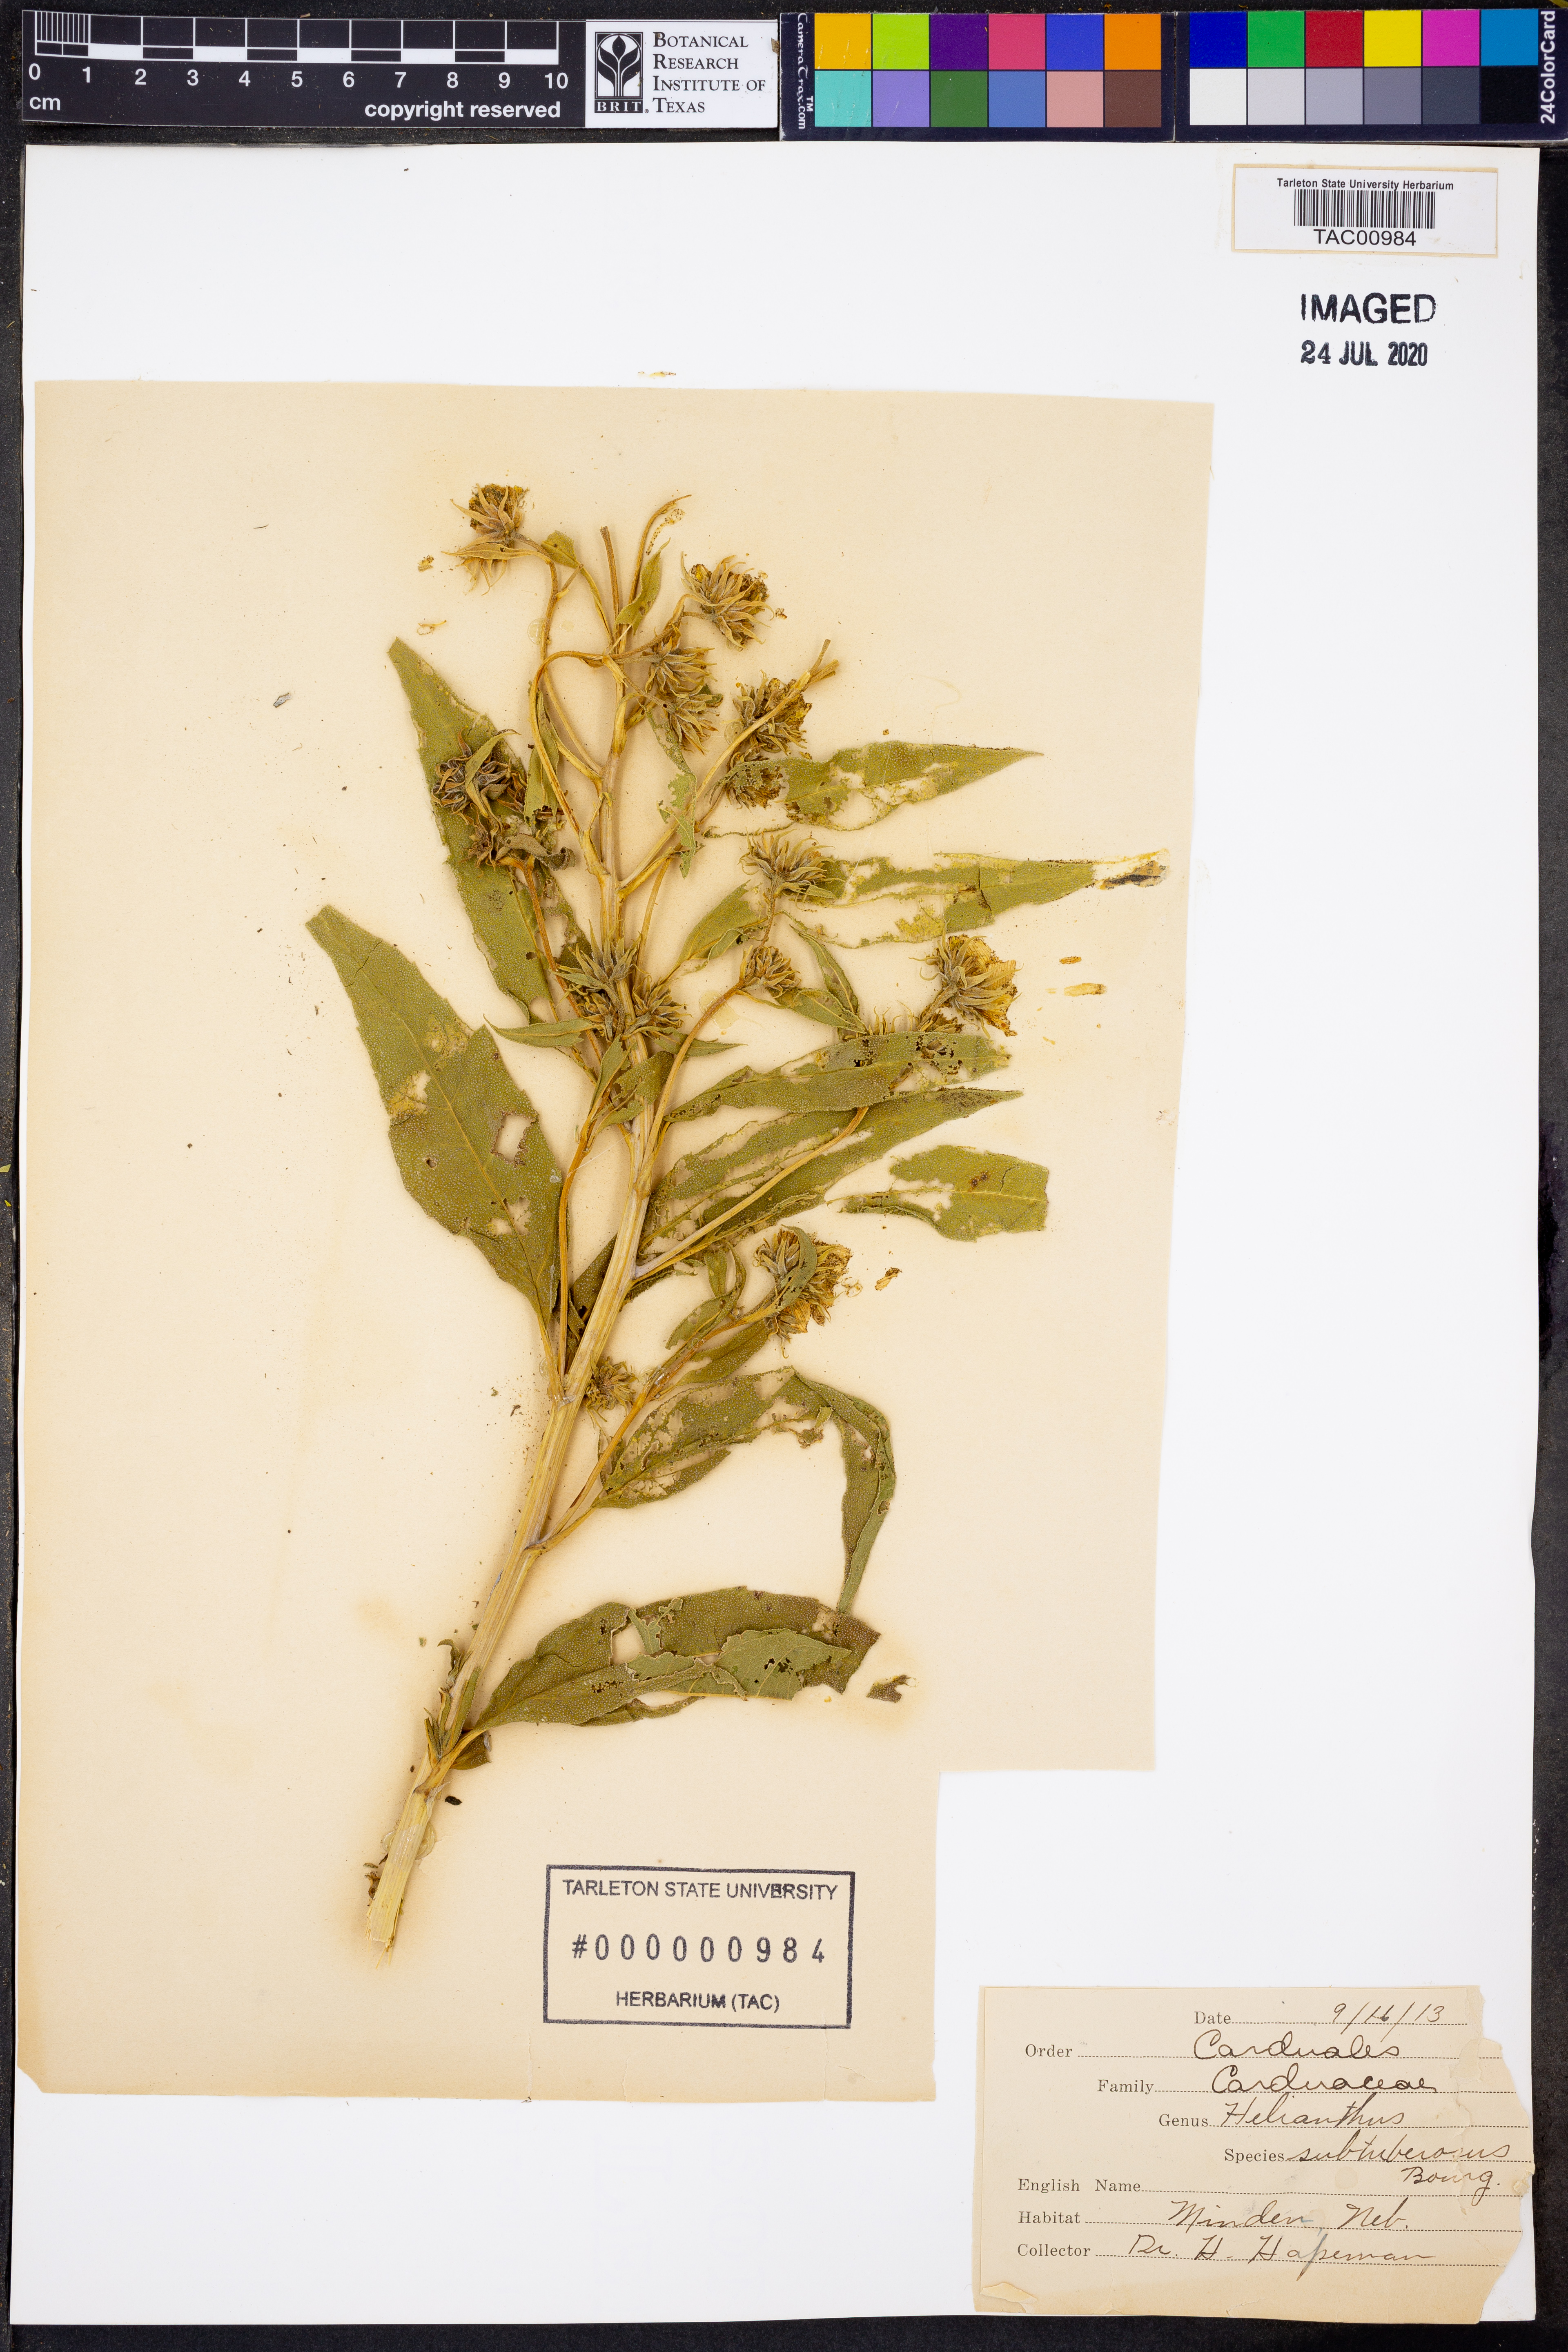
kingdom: Plantae
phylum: Tracheophyta
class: Magnoliopsida
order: Asterales
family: Asteraceae
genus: Helianthus
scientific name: Helianthus giganteus
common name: Giant sunflower
